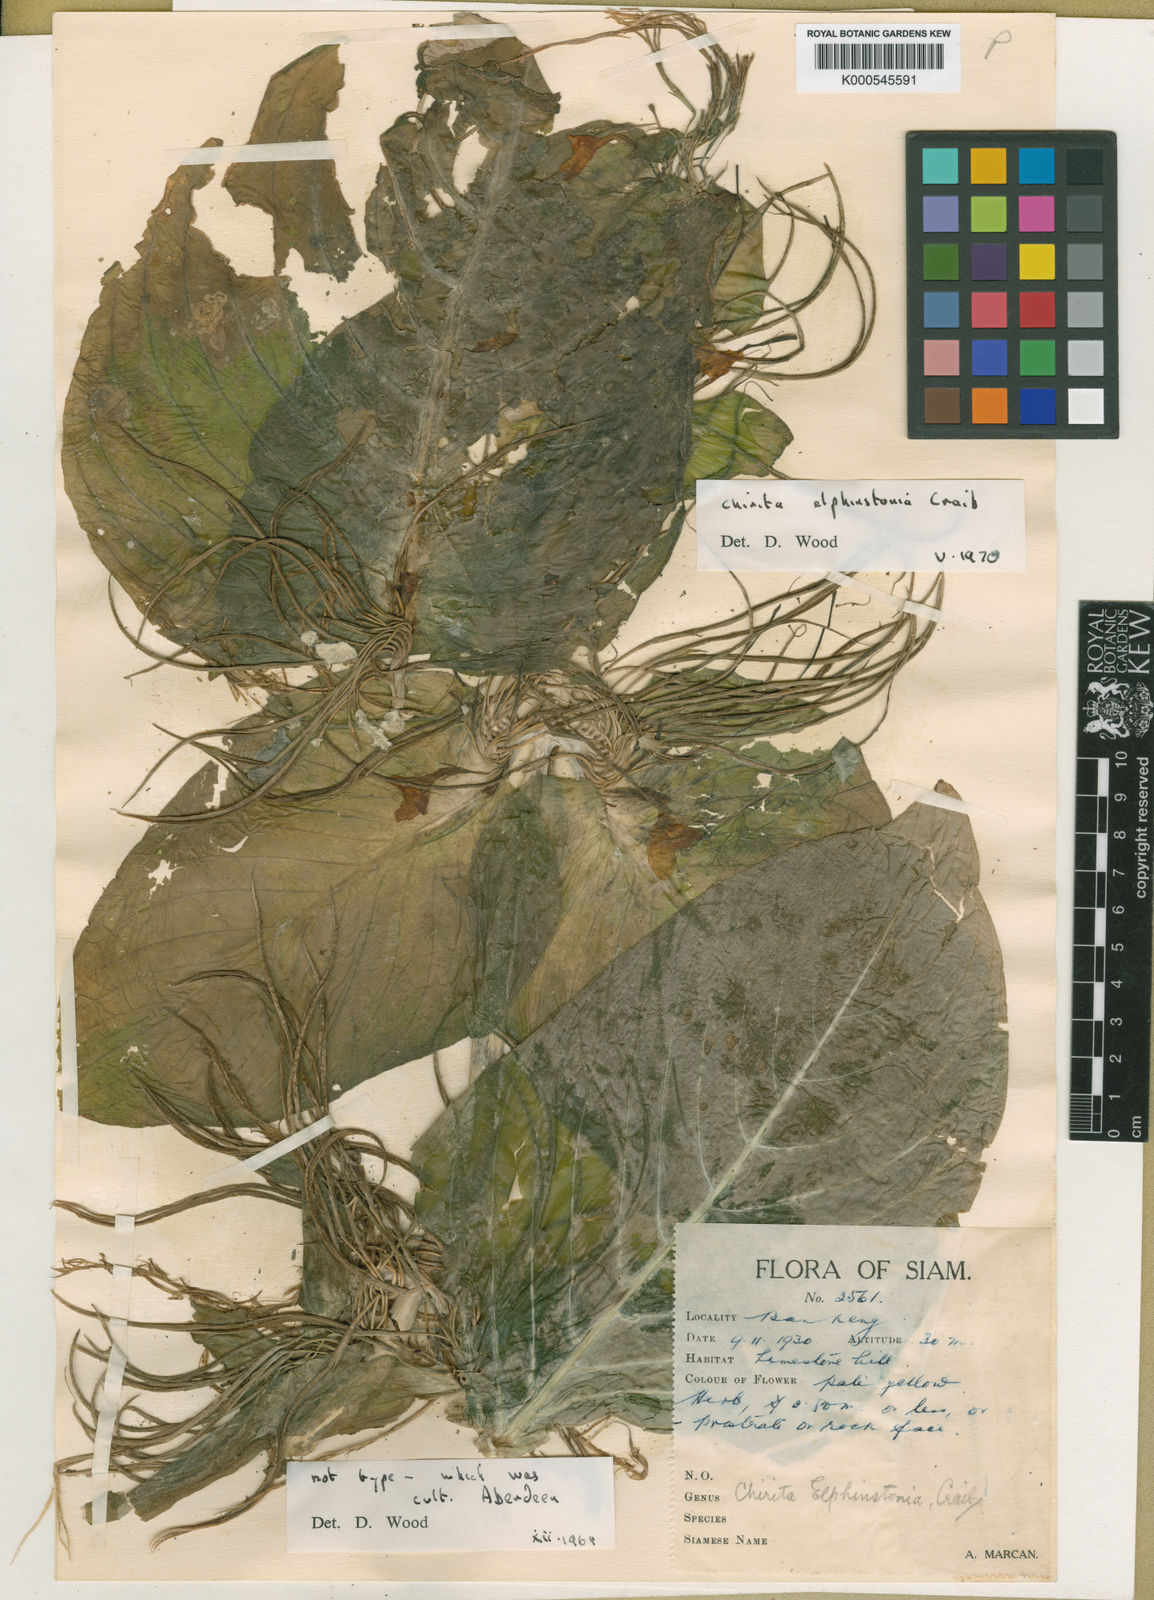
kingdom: Plantae
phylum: Tracheophyta
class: Magnoliopsida
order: Lamiales
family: Gesneriaceae
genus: Microchirita
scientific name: Microchirita elphinstonia
